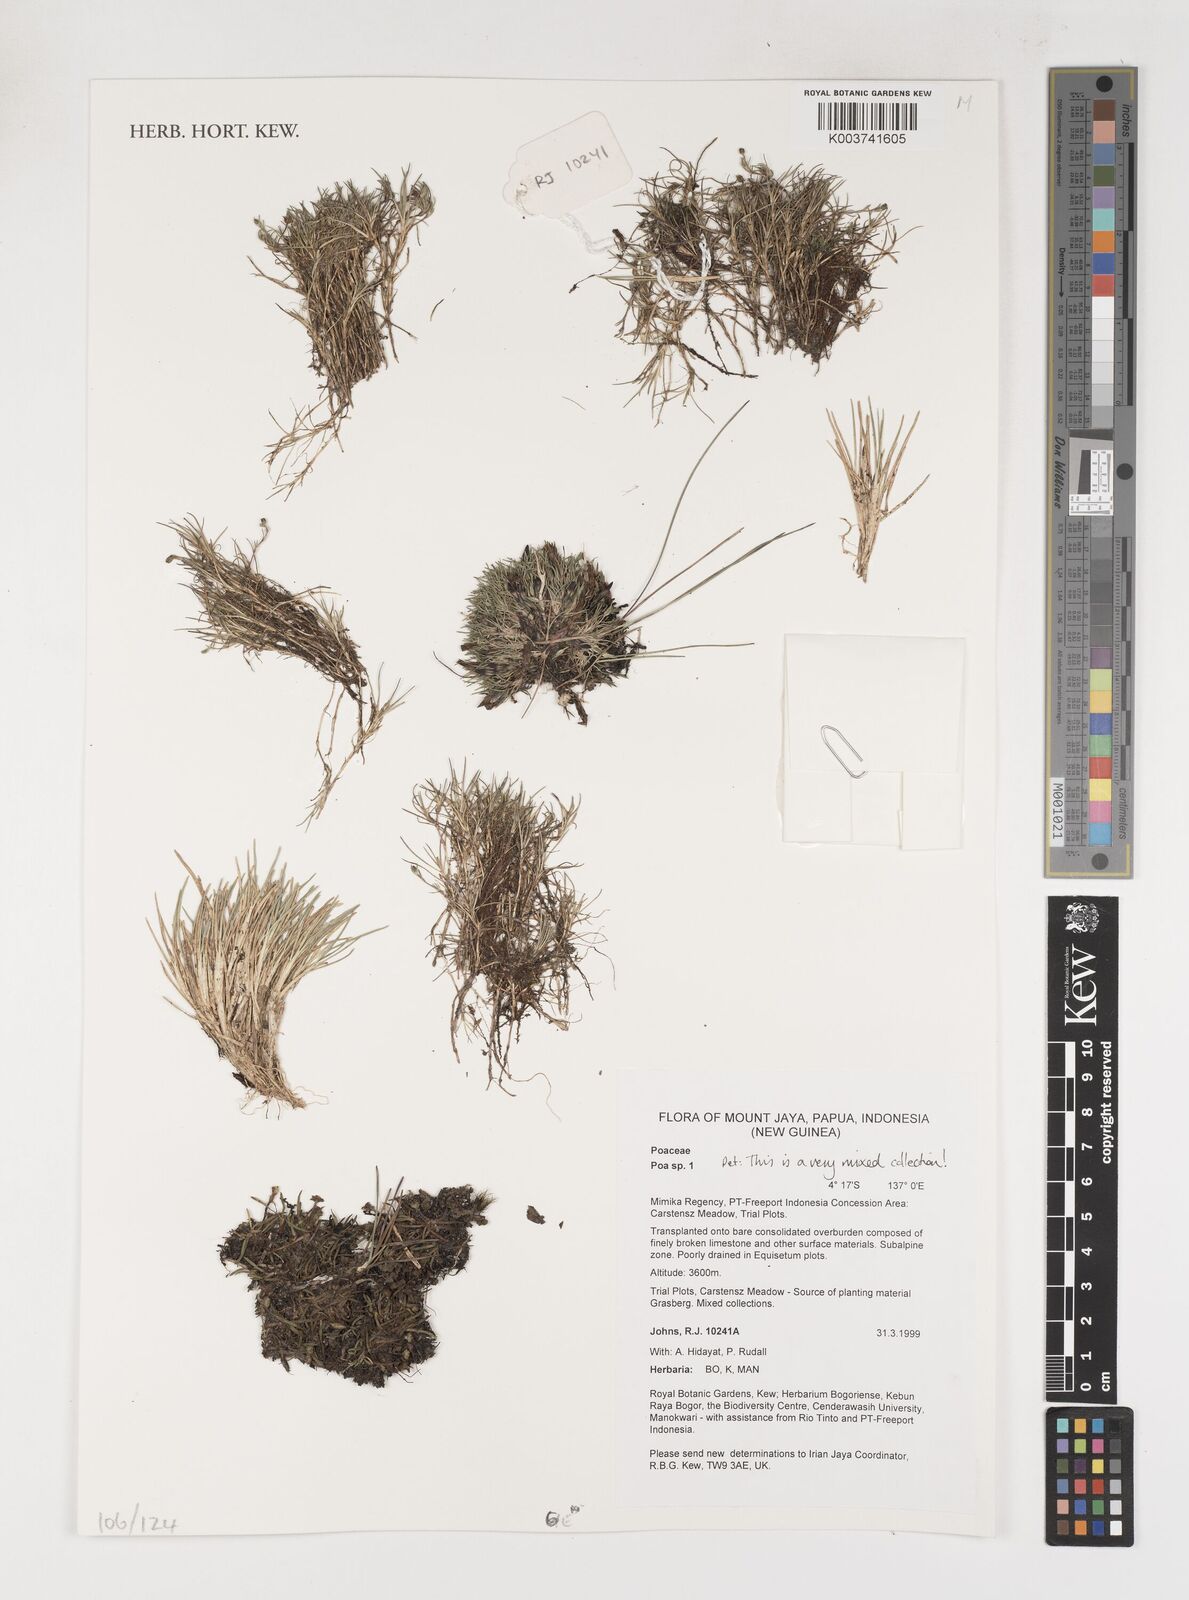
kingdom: Plantae
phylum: Tracheophyta
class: Liliopsida
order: Poales
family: Poaceae
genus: Poa
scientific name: Poa
